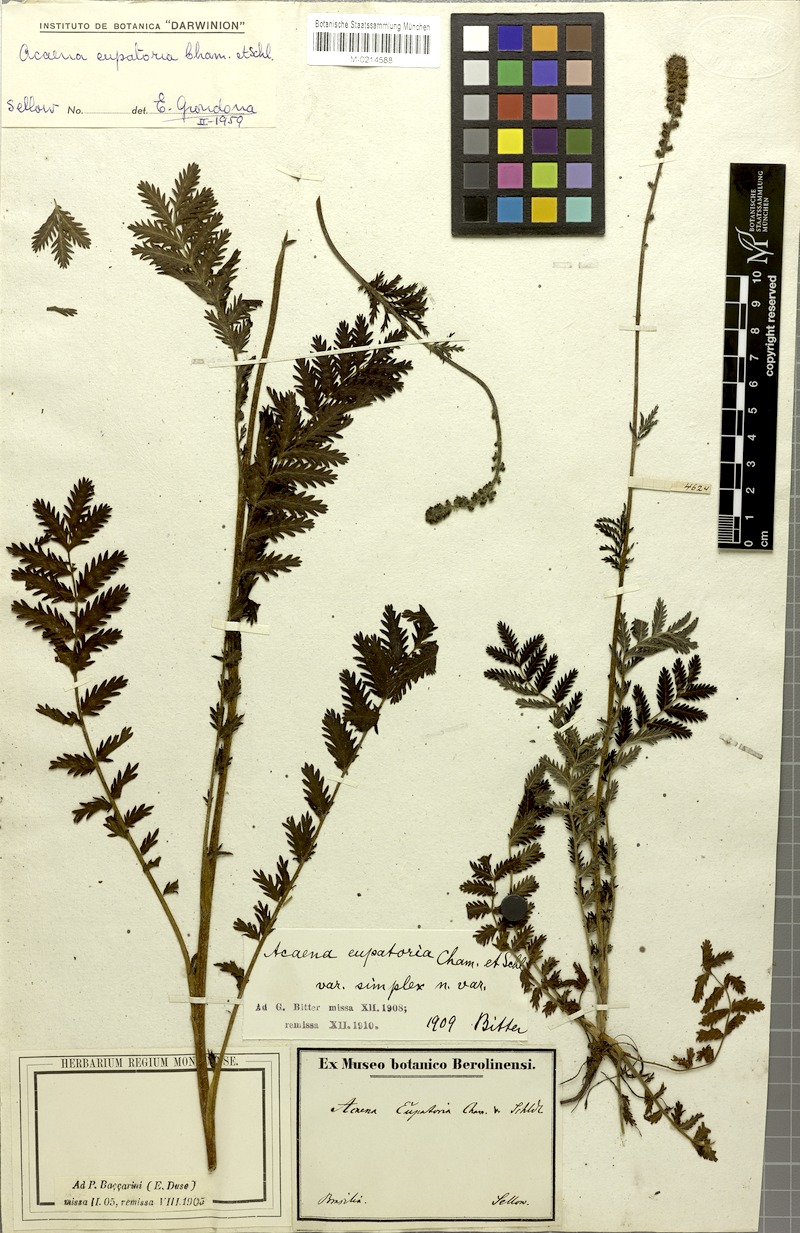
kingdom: Plantae
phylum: Tracheophyta
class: Magnoliopsida
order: Rosales
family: Rosaceae
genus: Acaena
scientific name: Acaena eupatoria
